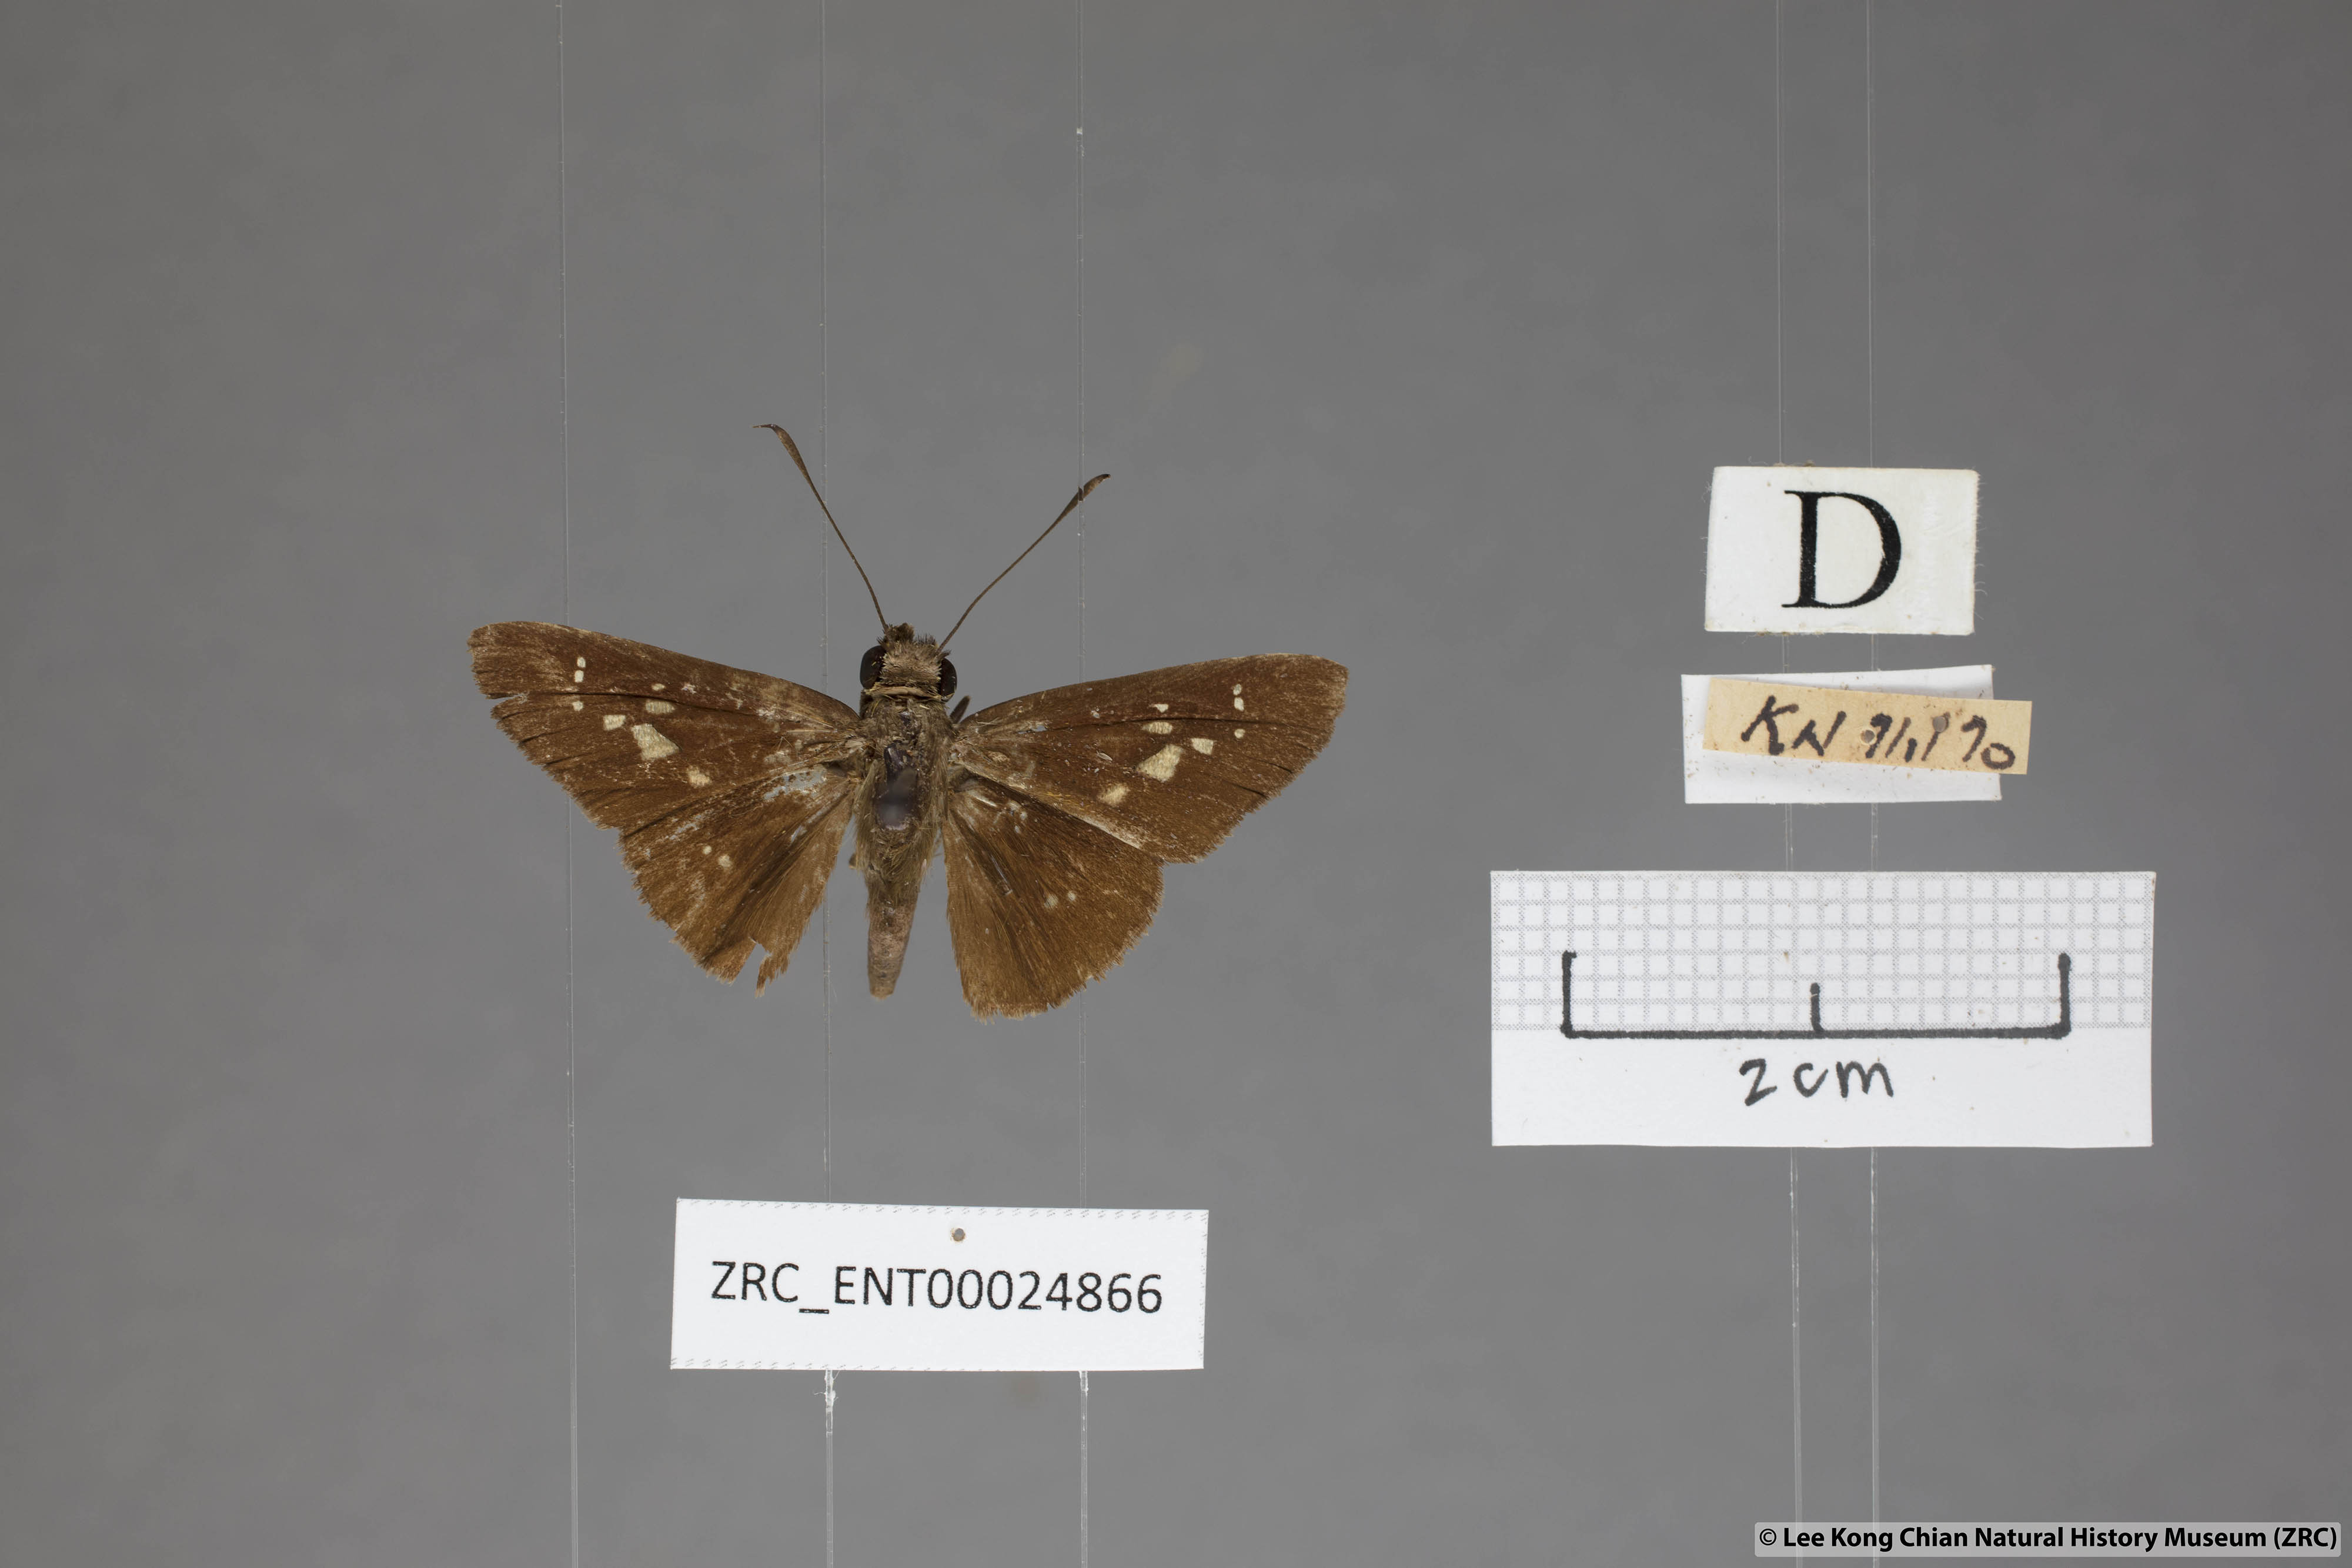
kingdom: Animalia
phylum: Arthropoda
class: Insecta
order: Lepidoptera
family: Hesperiidae
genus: Isma
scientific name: Isma miosticta
